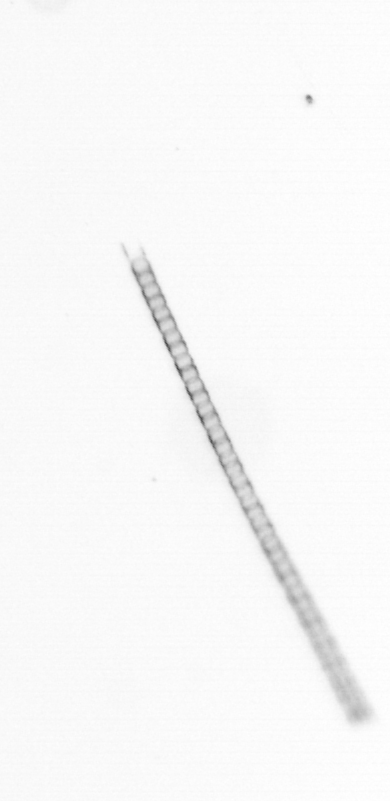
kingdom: Chromista
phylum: Ochrophyta
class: Bacillariophyceae
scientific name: Bacillariophyceae
